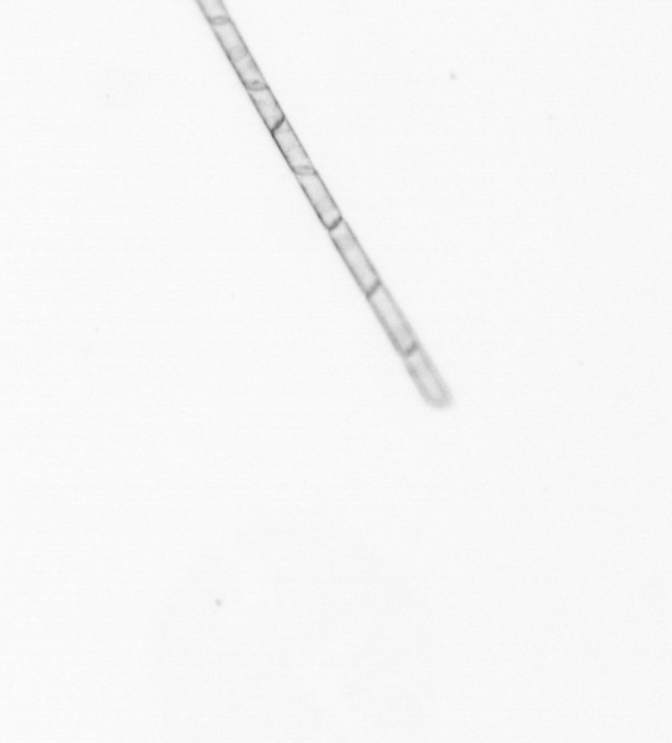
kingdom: Chromista
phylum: Ochrophyta
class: Bacillariophyceae
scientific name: Bacillariophyceae
